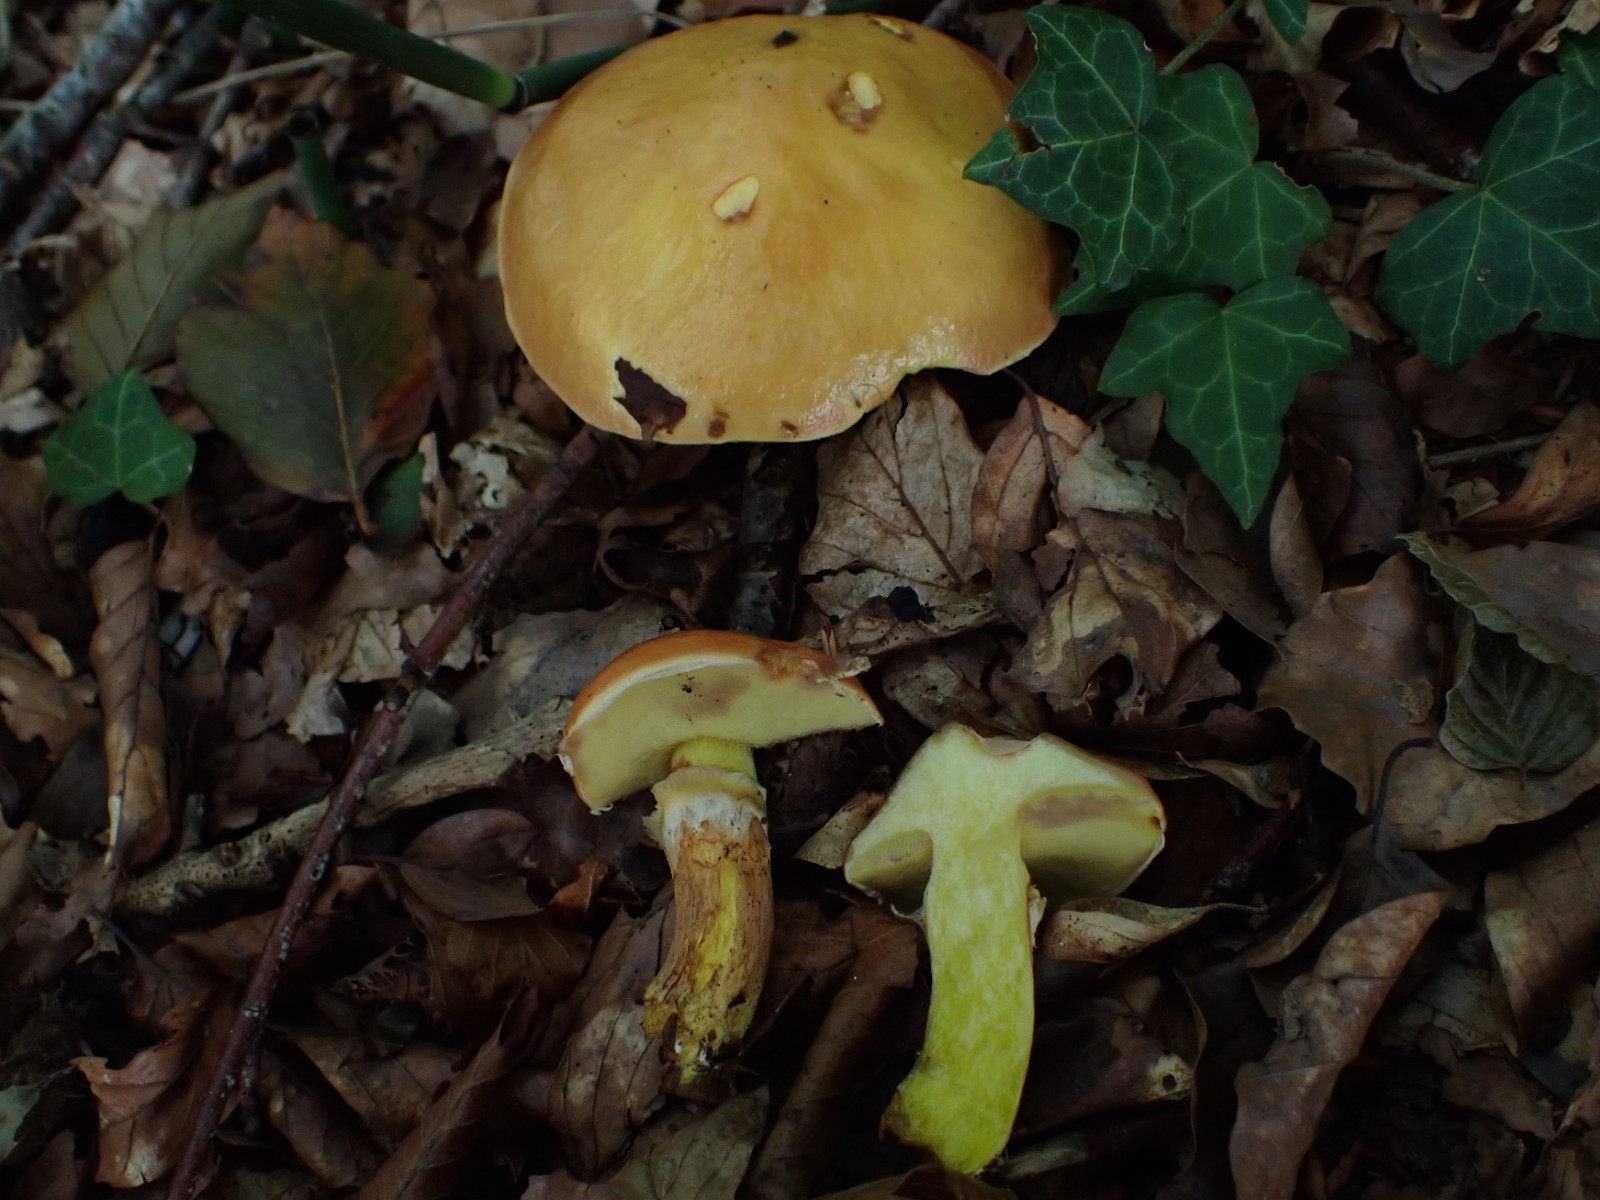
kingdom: Fungi
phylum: Basidiomycota
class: Agaricomycetes
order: Boletales
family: Suillaceae
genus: Suillus
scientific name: Suillus grevillei
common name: lærke-slimrørhat
